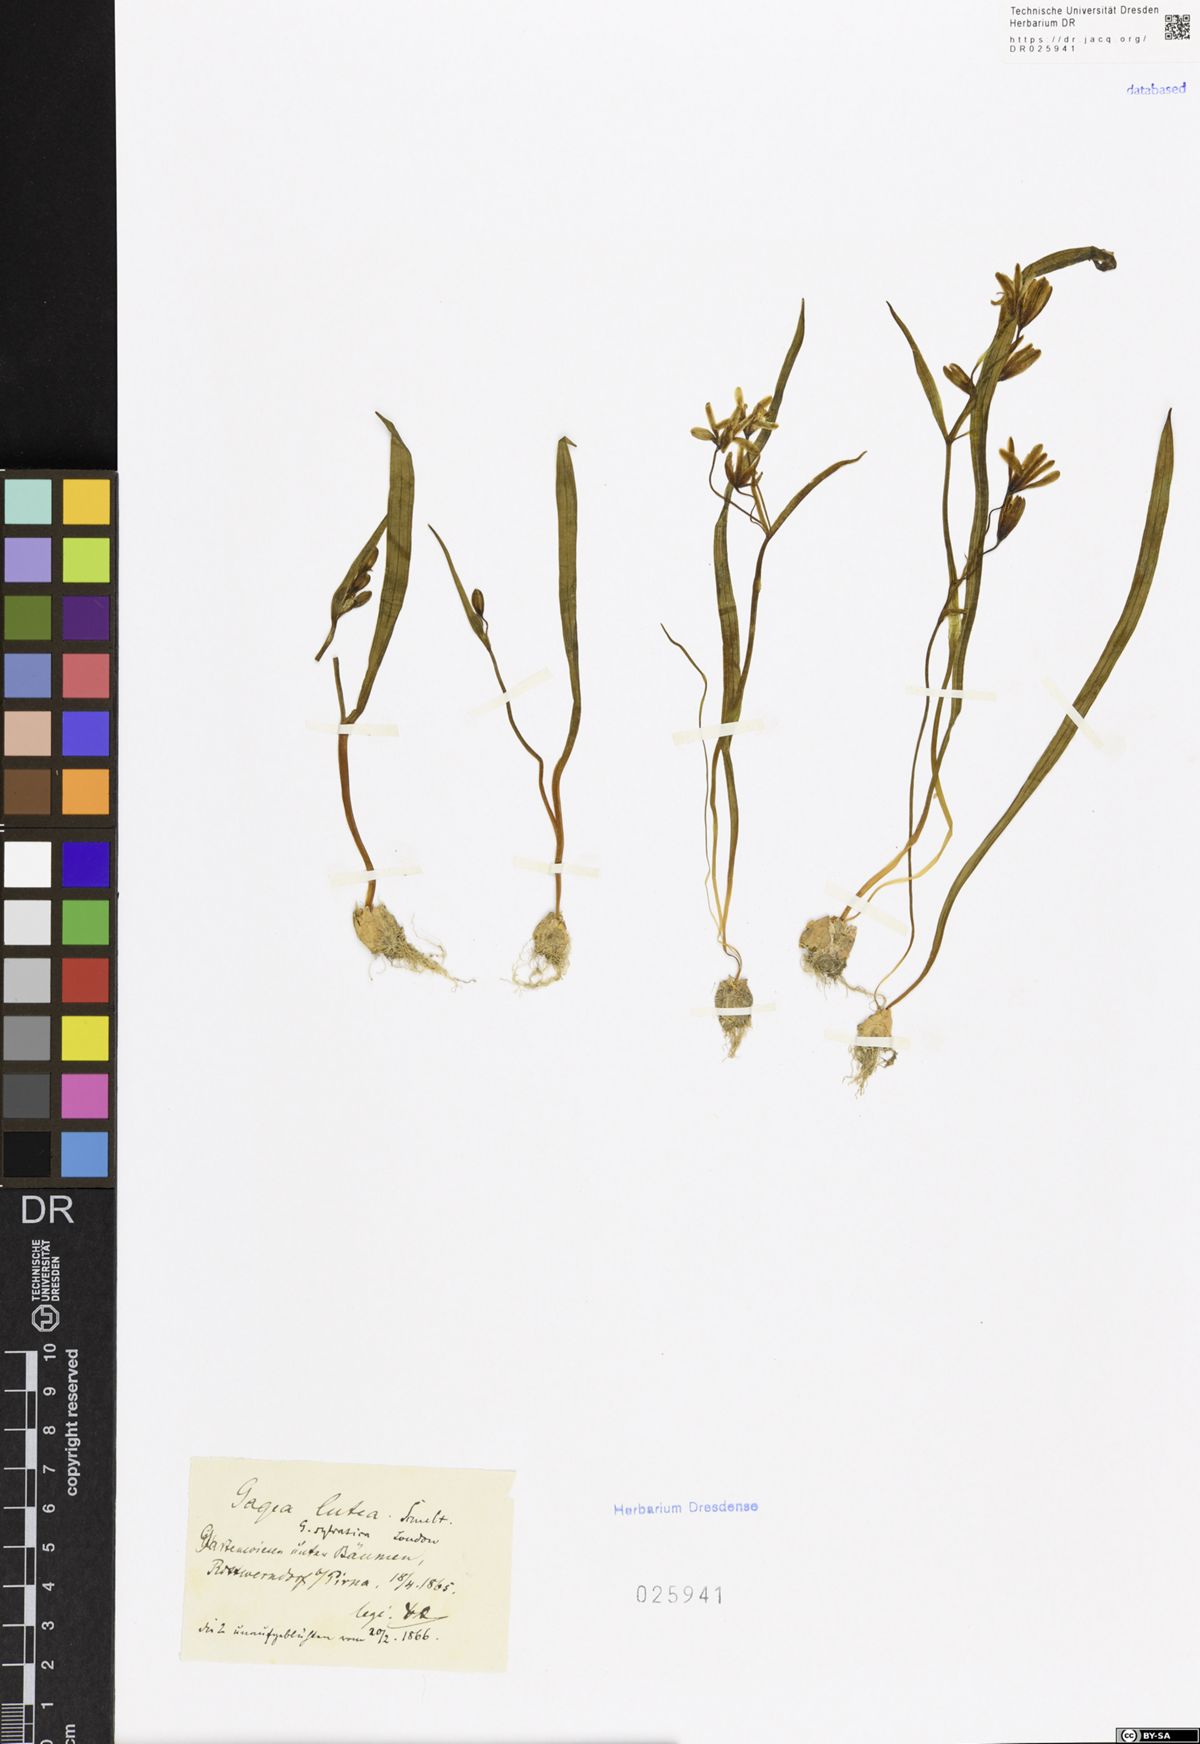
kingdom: Plantae
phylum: Tracheophyta
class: Liliopsida
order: Liliales
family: Liliaceae
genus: Gagea
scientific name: Gagea lutea
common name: Yellow star-of-bethlehem
